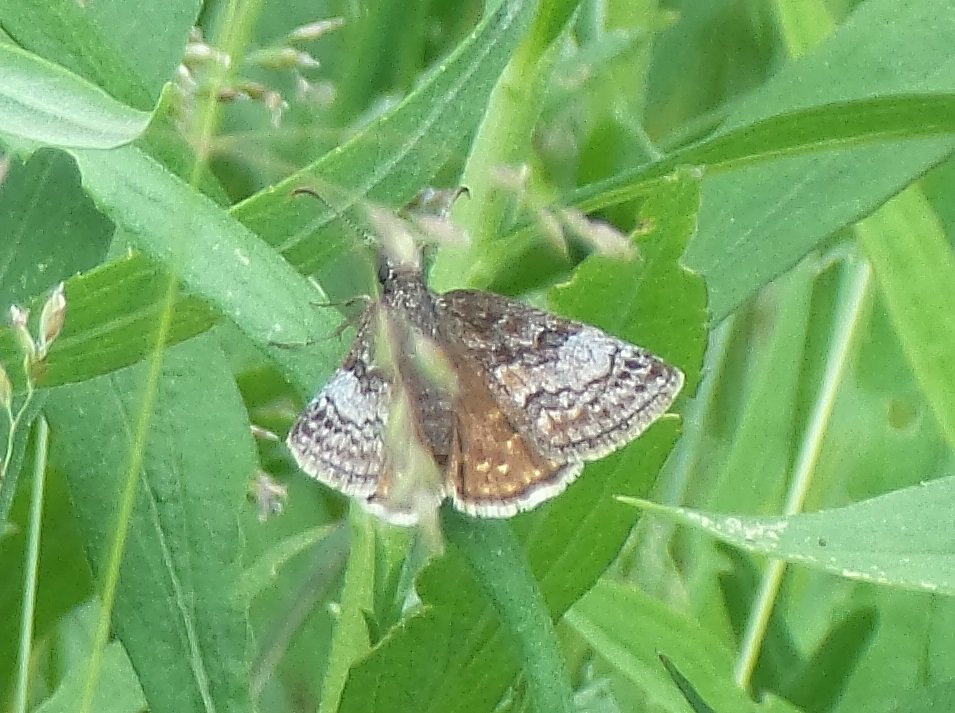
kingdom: Animalia
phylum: Arthropoda
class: Insecta
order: Lepidoptera
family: Hesperiidae
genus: Erynnis
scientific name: Erynnis icelus
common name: Dreamy Duskywing
